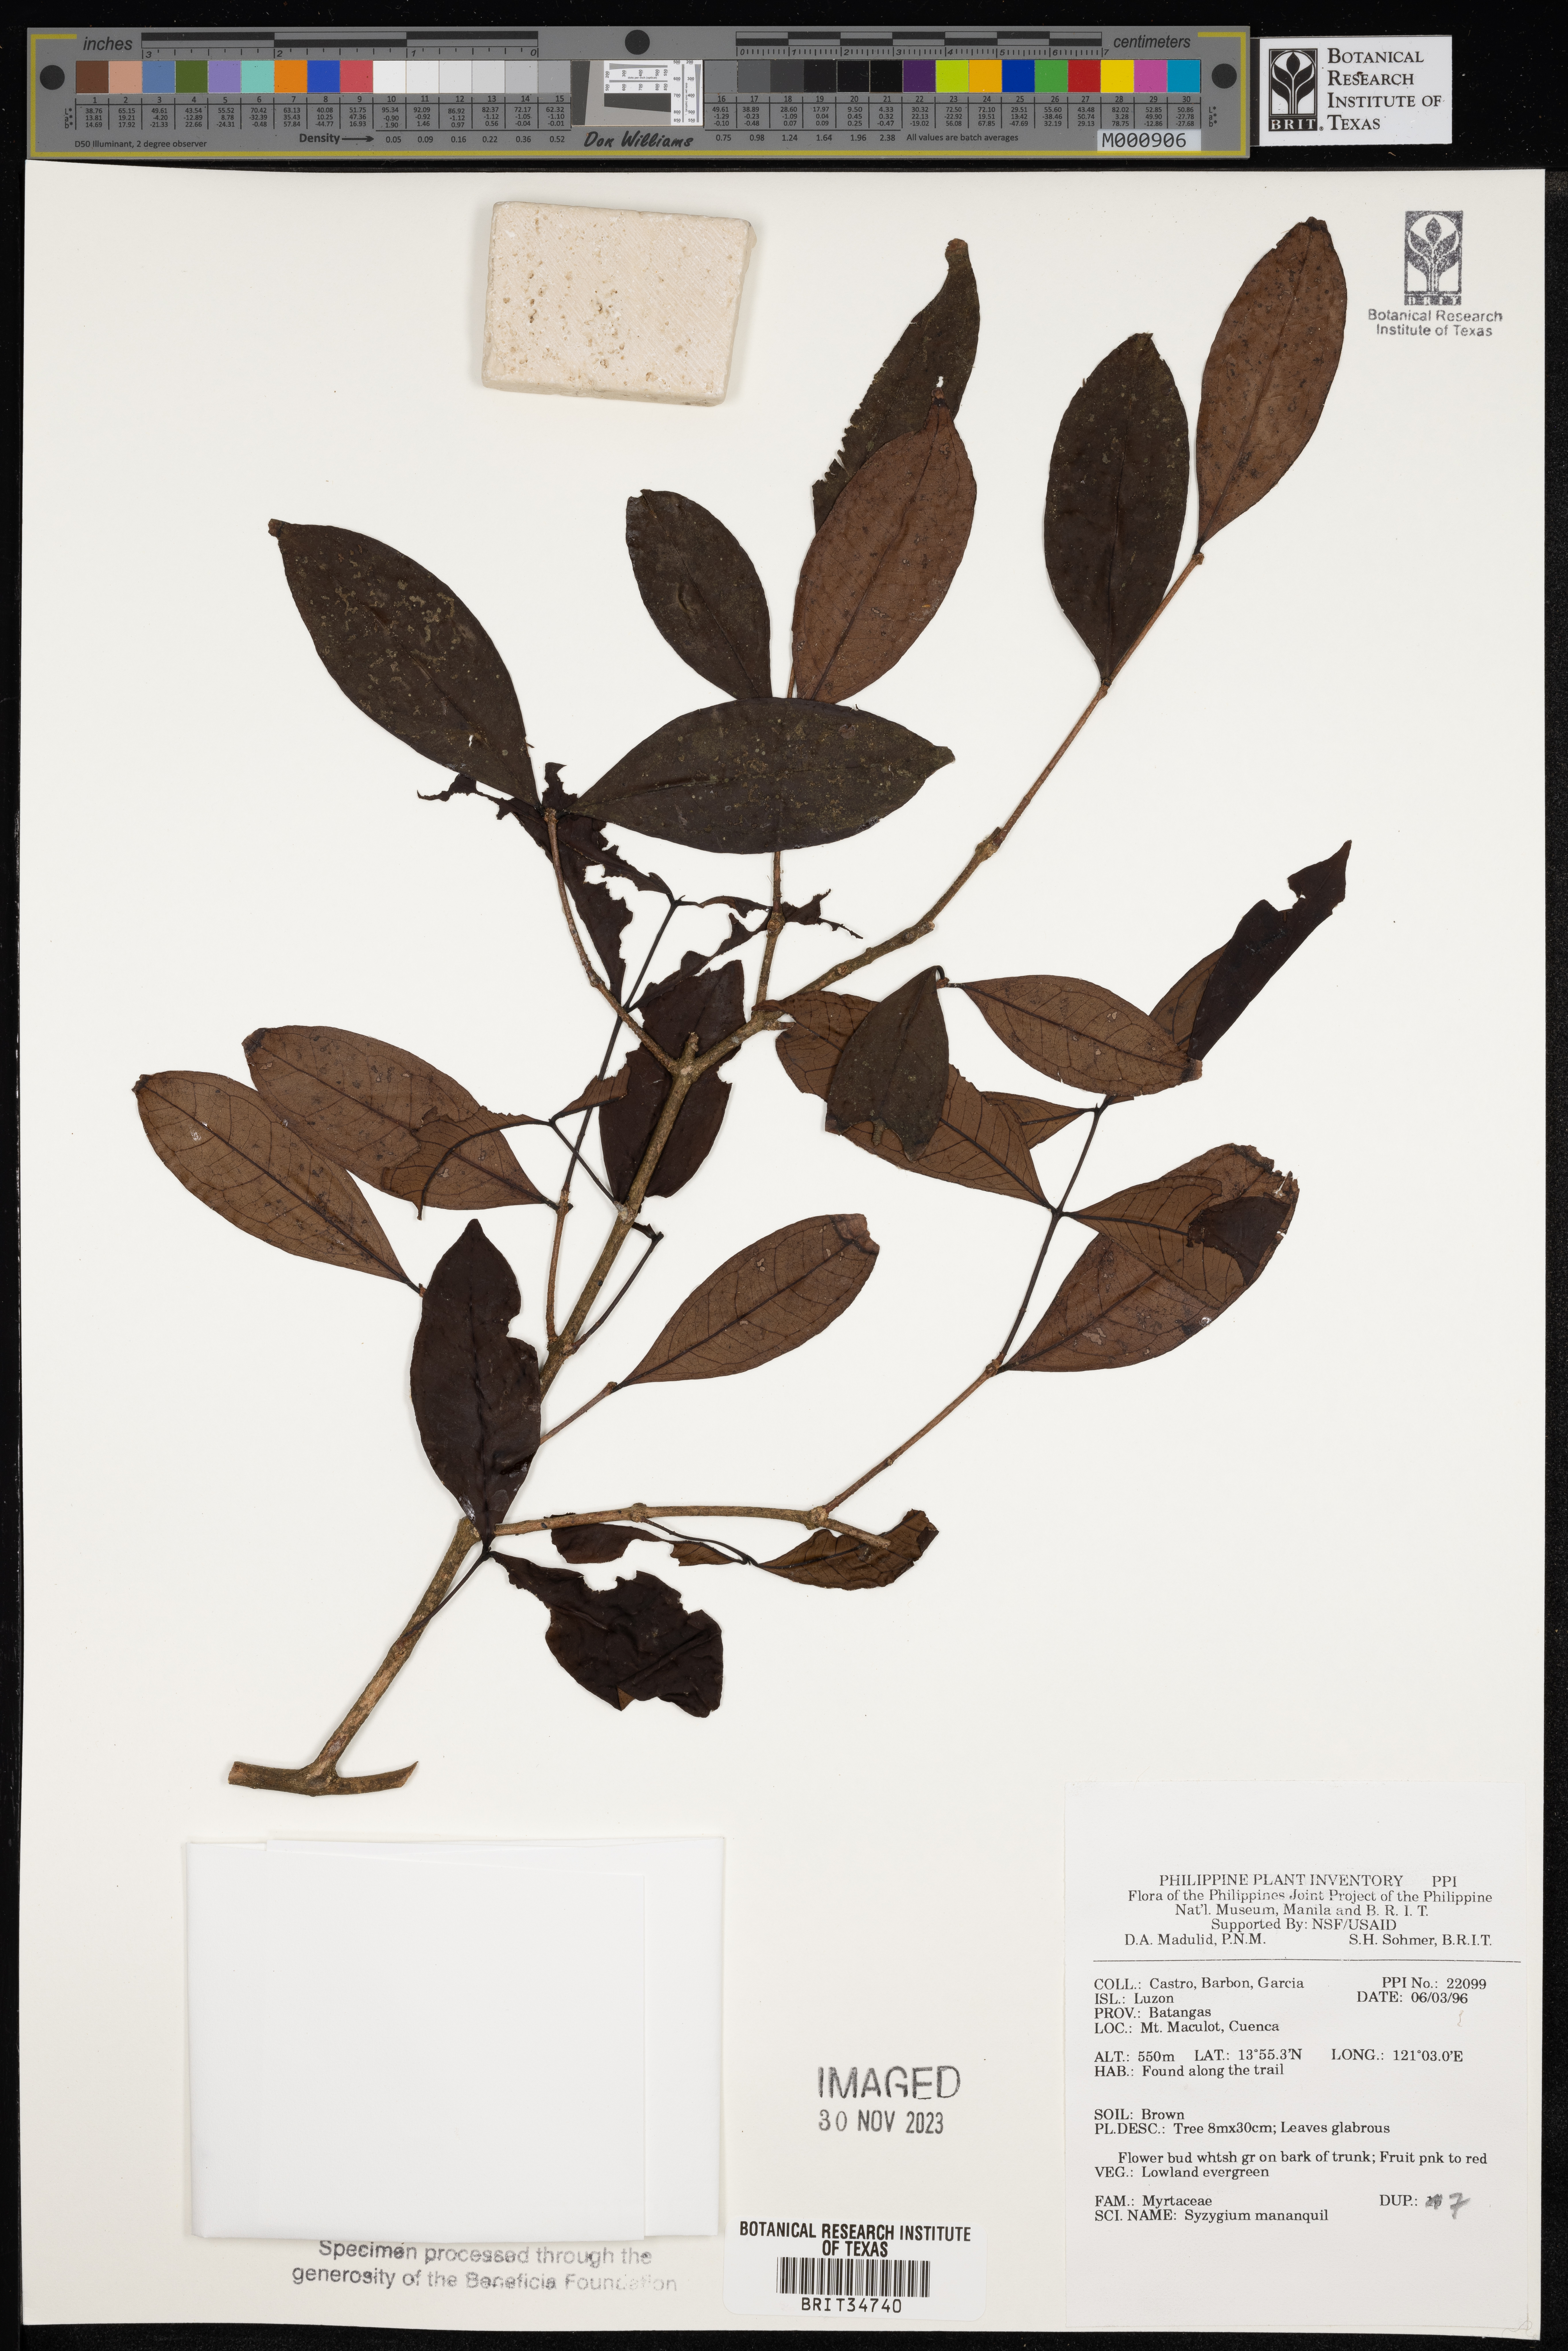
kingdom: Plantae
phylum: Tracheophyta
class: Magnoliopsida
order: Myrtales
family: Myrtaceae
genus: Syzygium
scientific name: Syzygium mananquil
